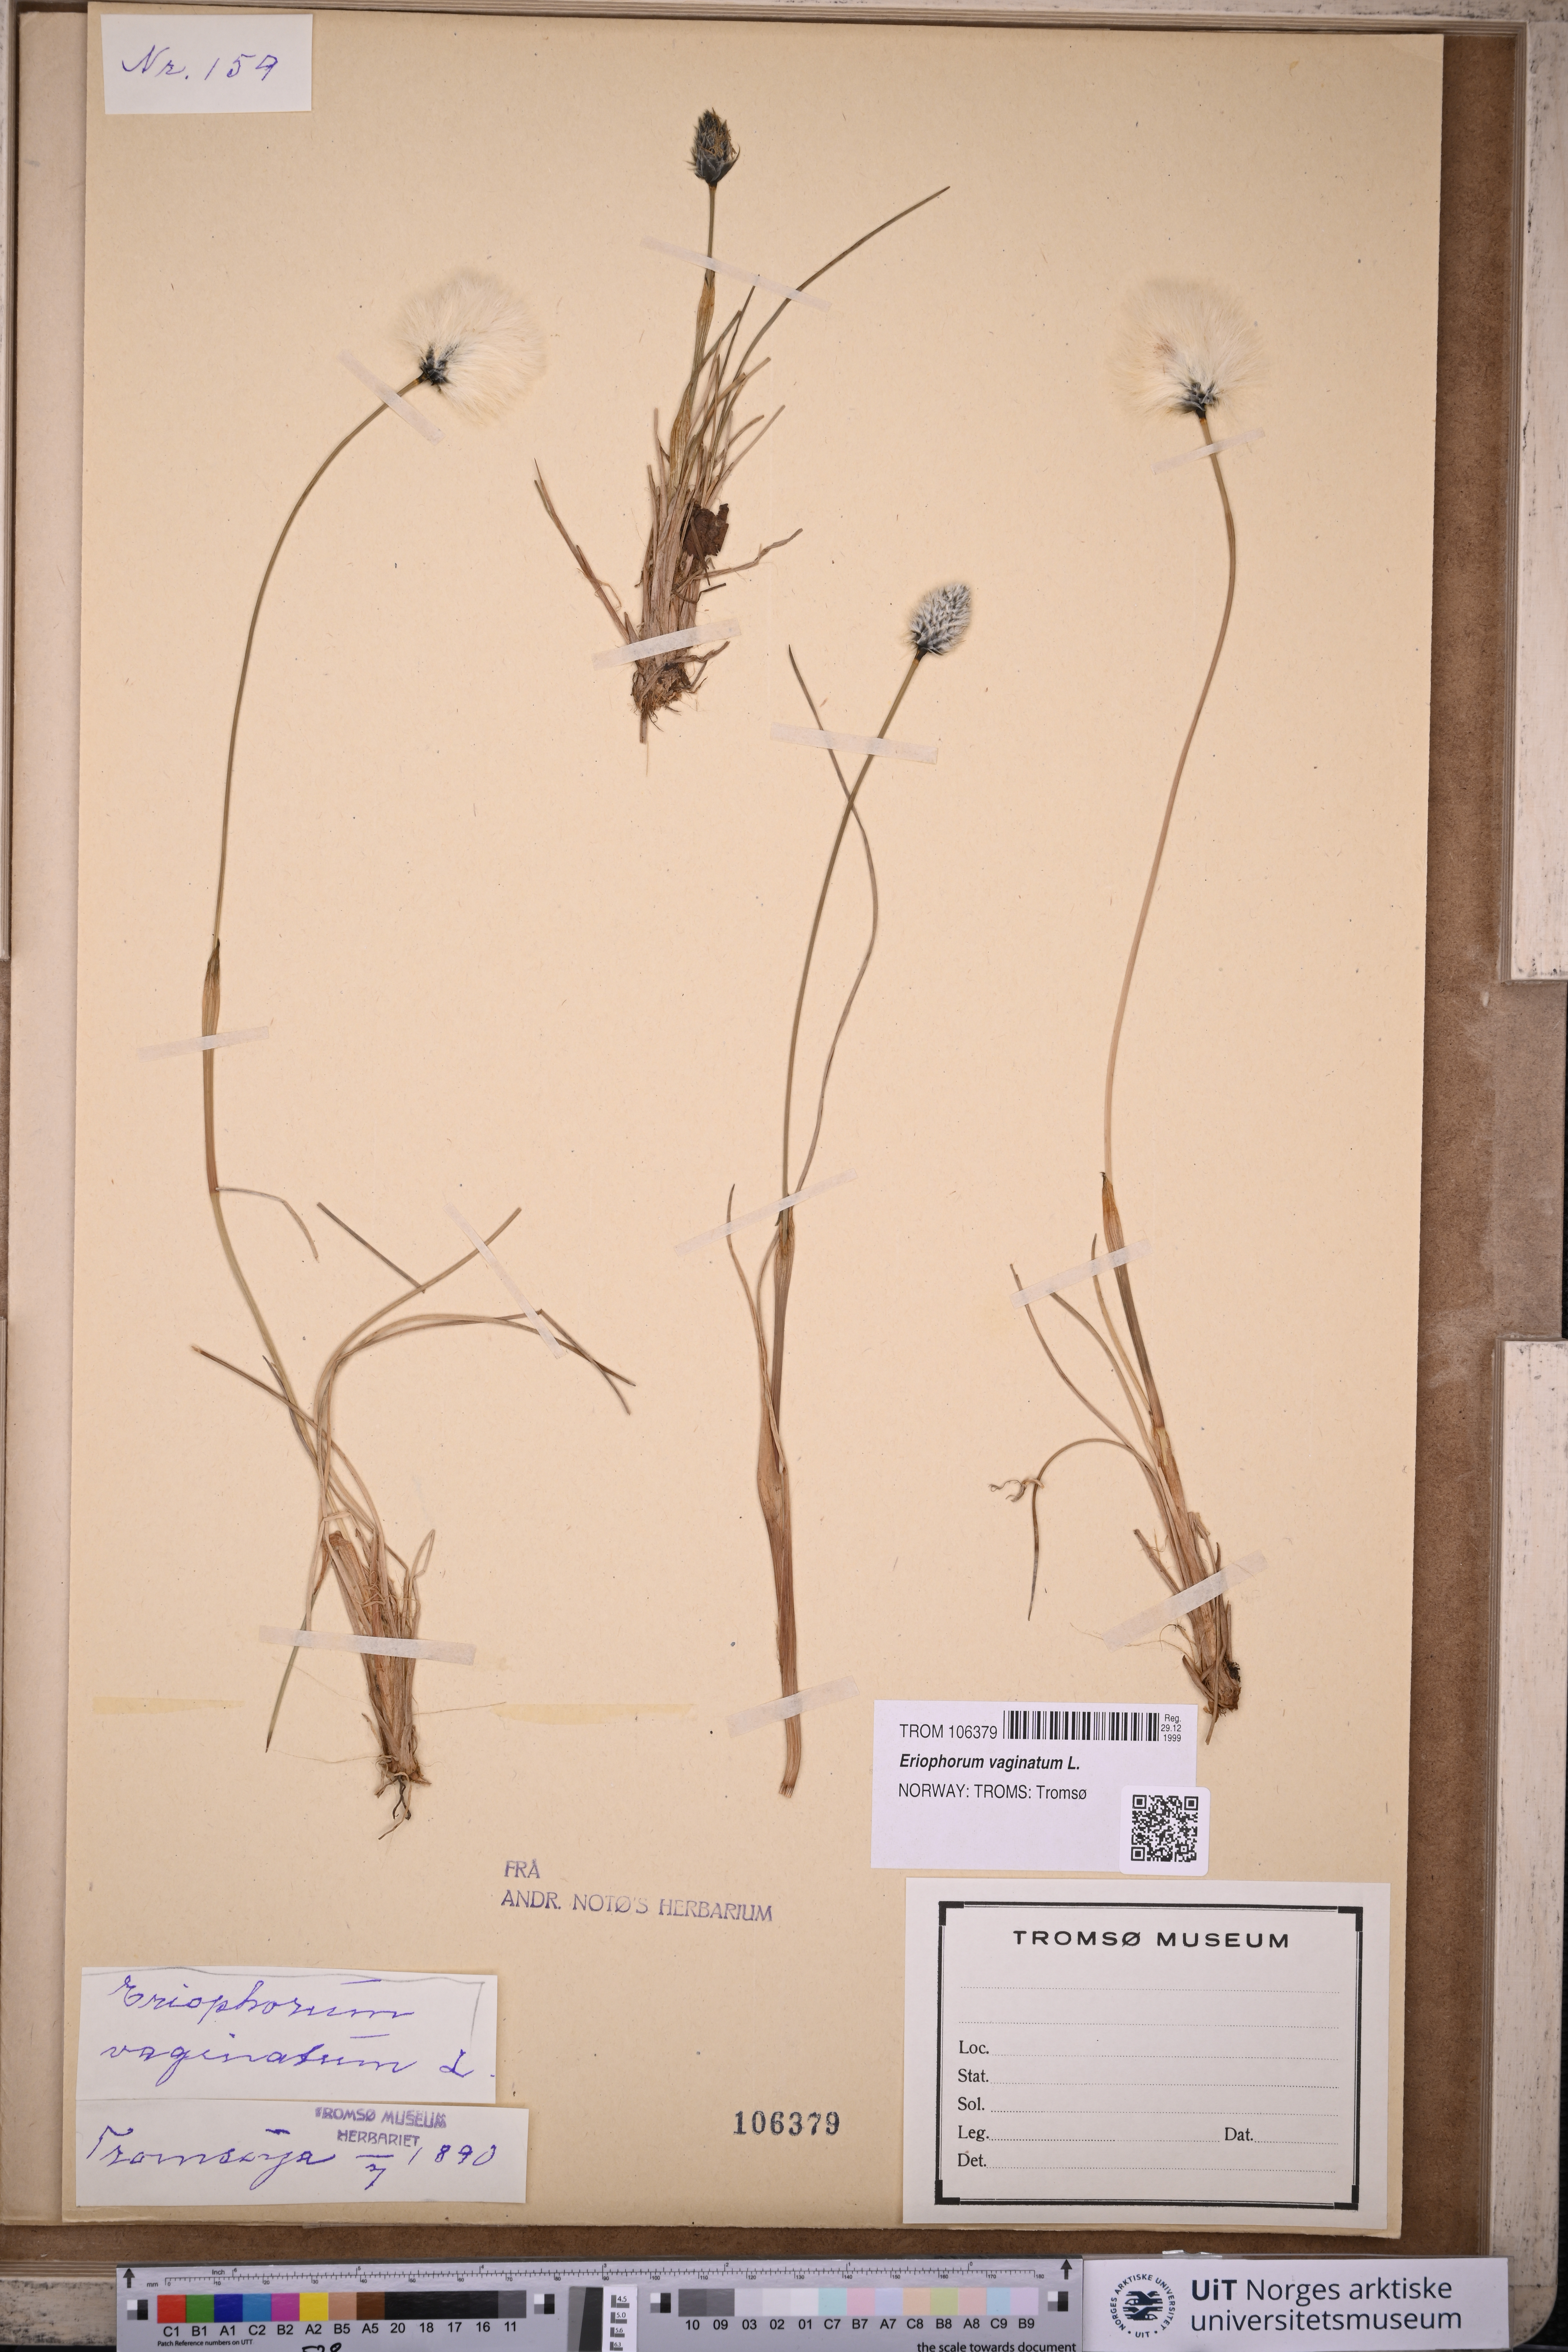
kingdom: Plantae
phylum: Tracheophyta
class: Liliopsida
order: Poales
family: Cyperaceae
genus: Eriophorum
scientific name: Eriophorum vaginatum
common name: Hare's-tail cottongrass
